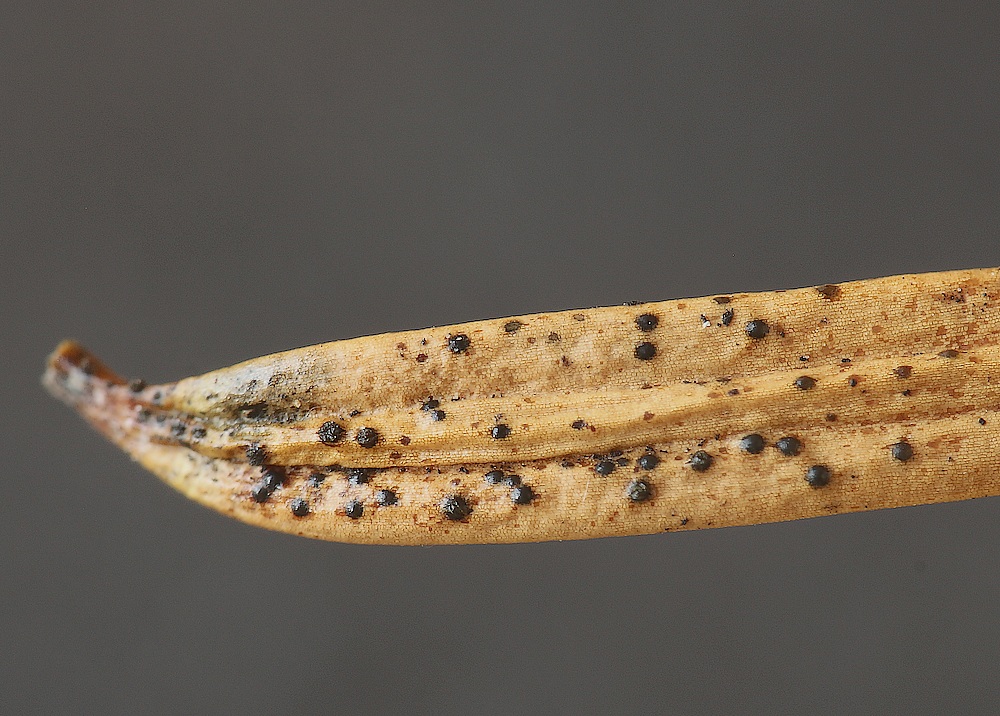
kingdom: Fungi
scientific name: Fungi
